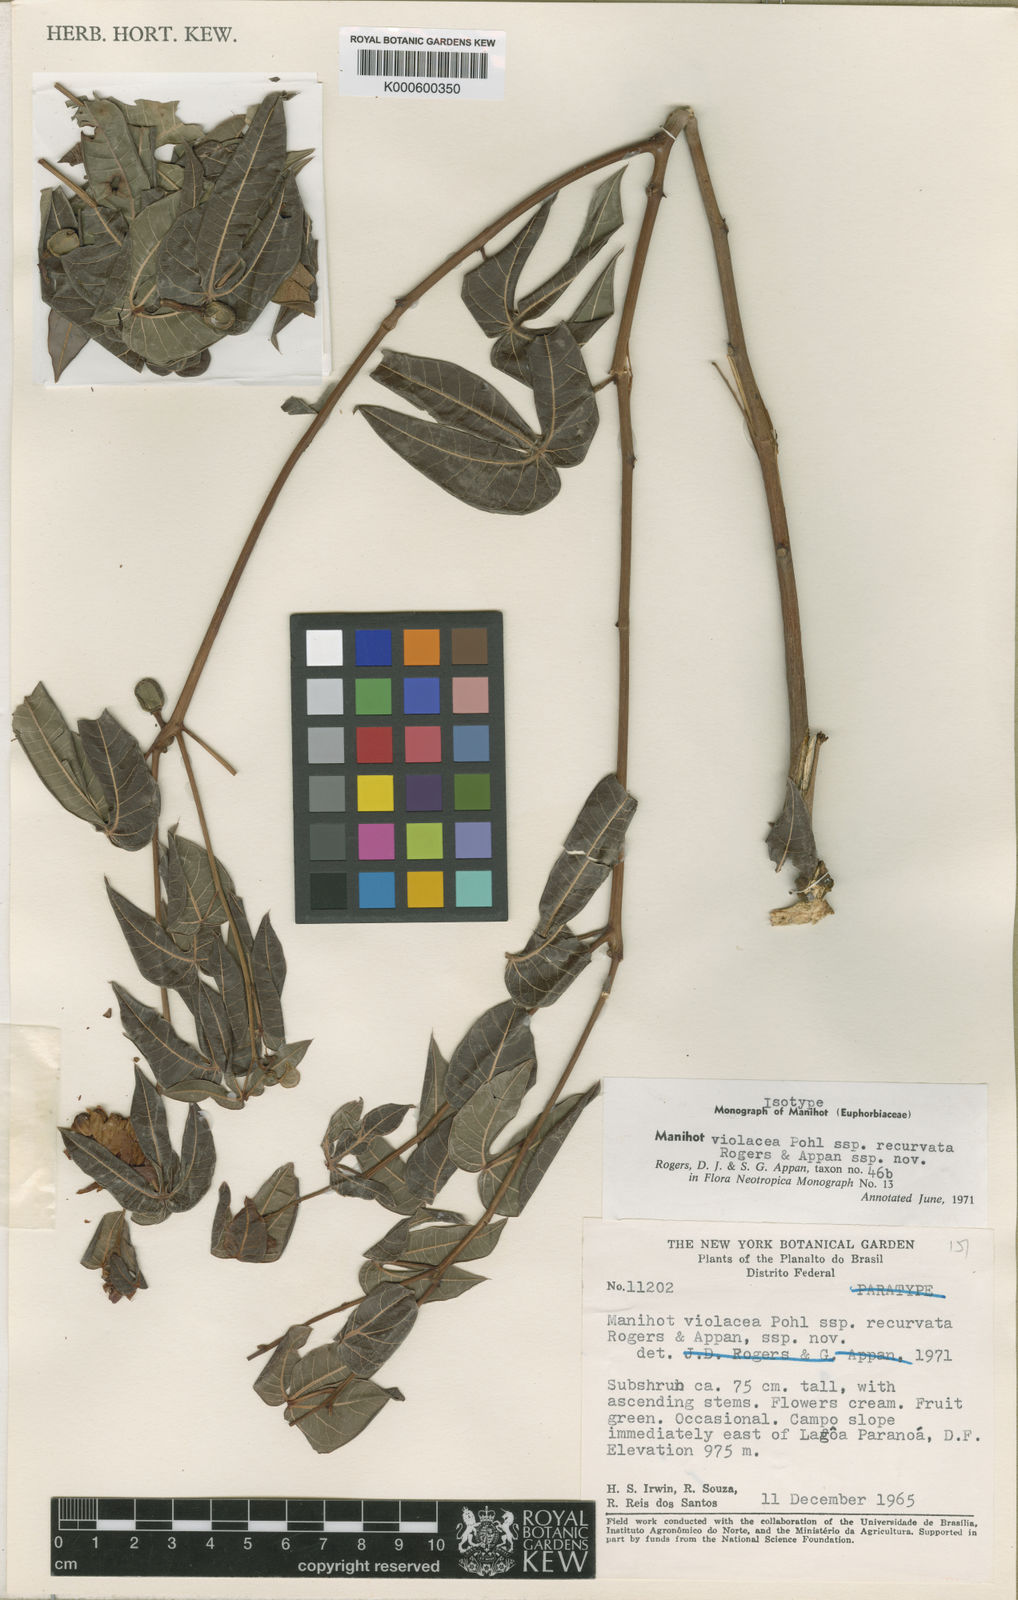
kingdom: Plantae
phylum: Tracheophyta
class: Magnoliopsida
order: Malpighiales
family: Euphorbiaceae
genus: Manihot
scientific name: Manihot violacea
